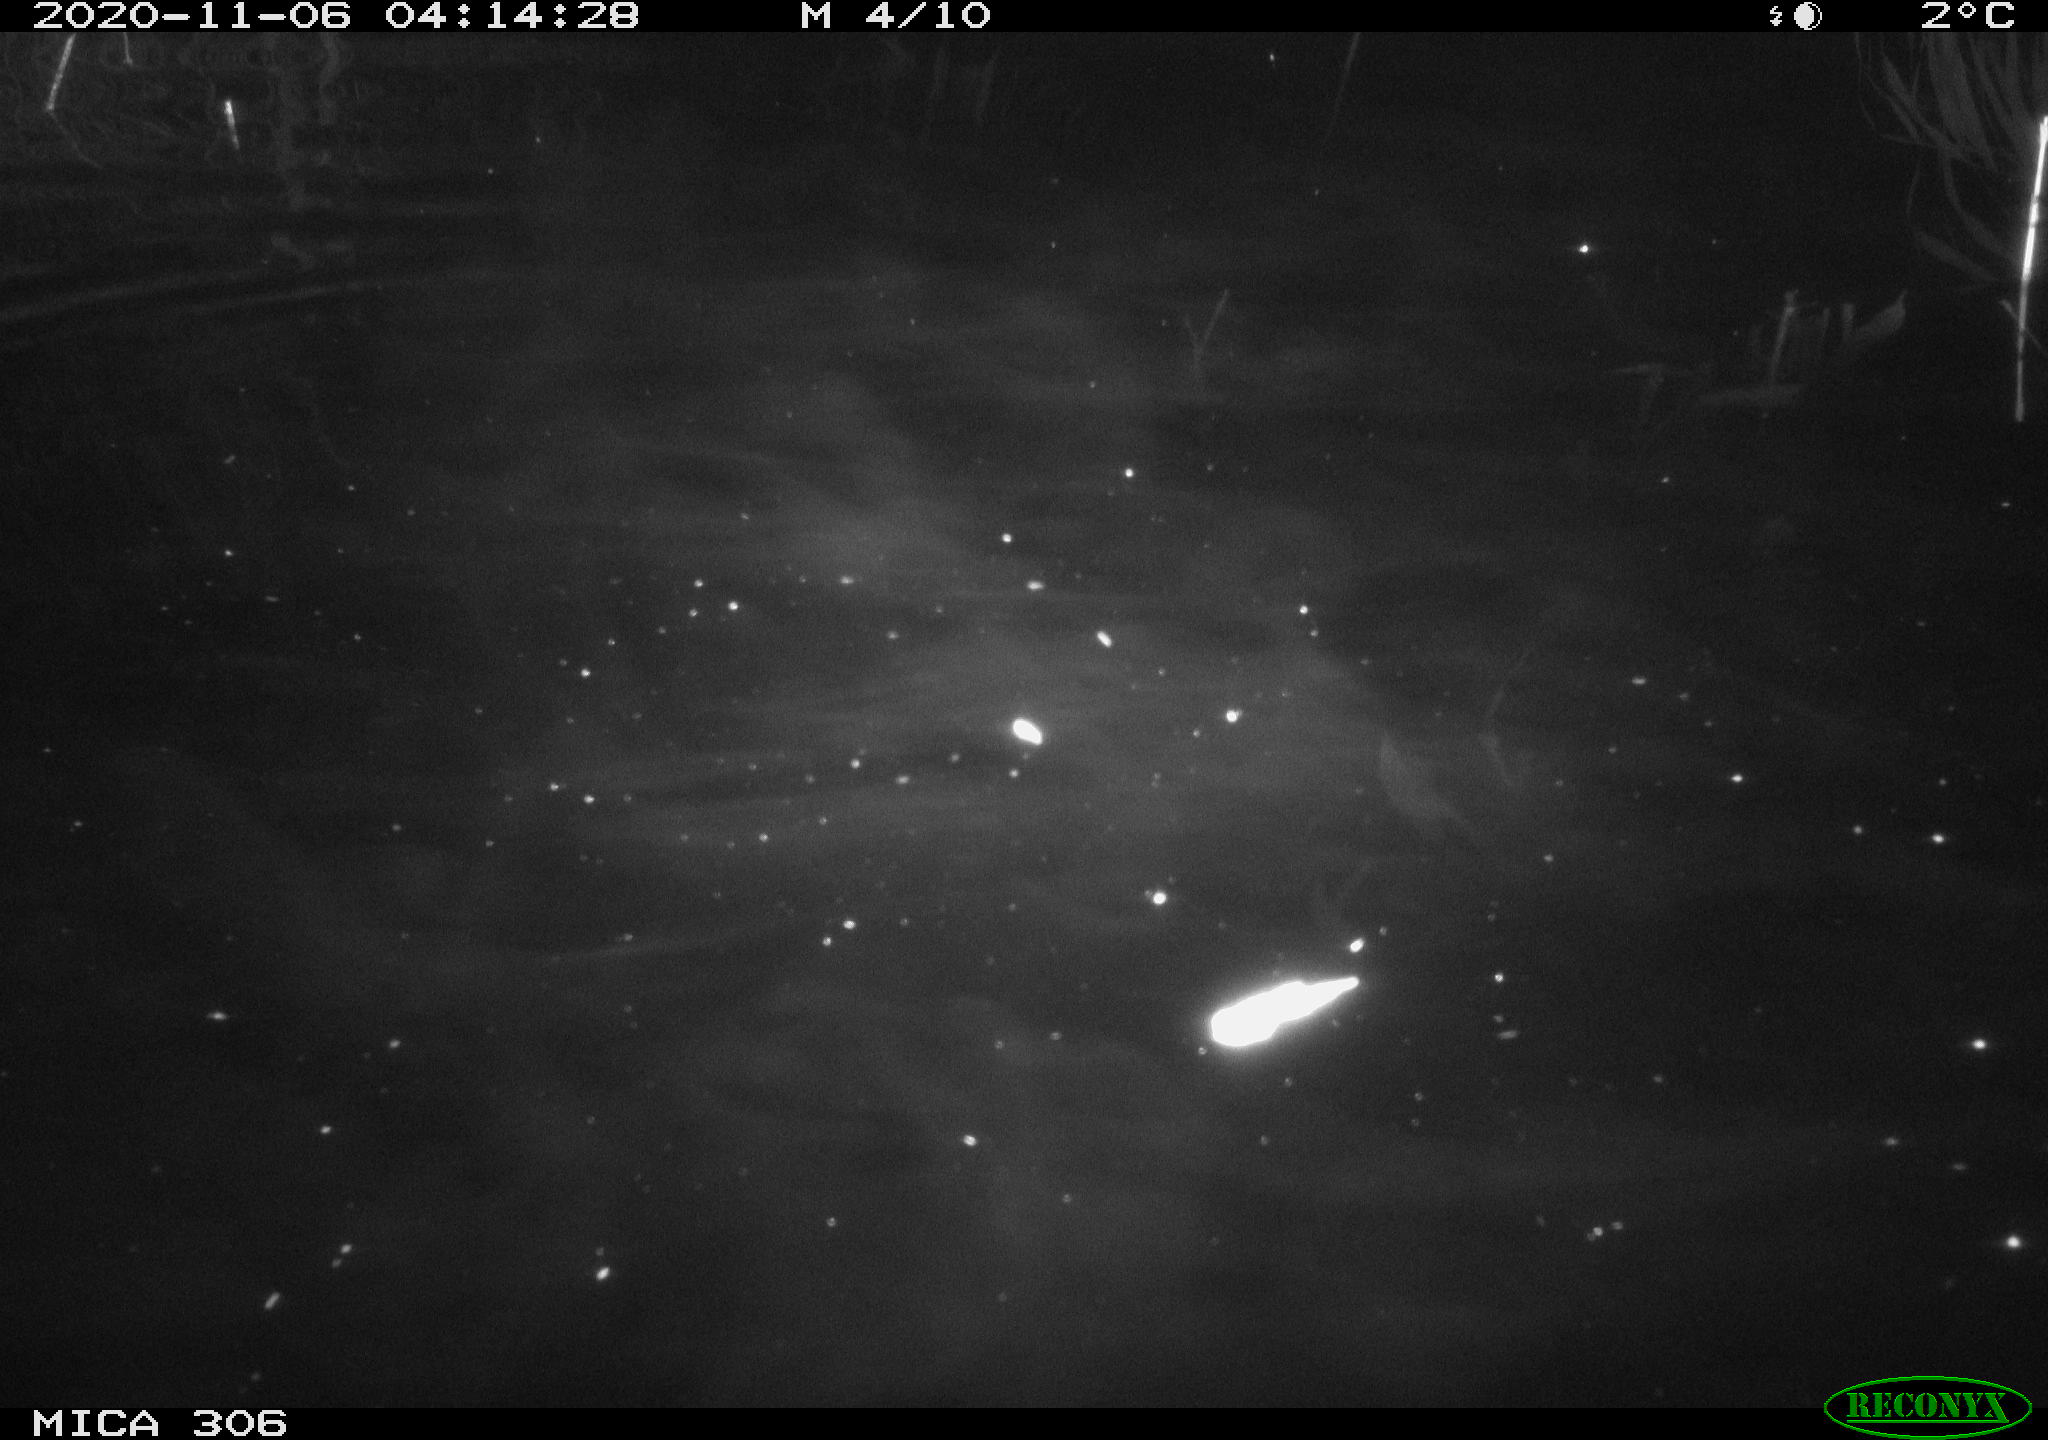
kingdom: Animalia
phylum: Chordata
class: Mammalia
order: Rodentia
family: Muridae
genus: Rattus
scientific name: Rattus norvegicus
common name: Brown rat
